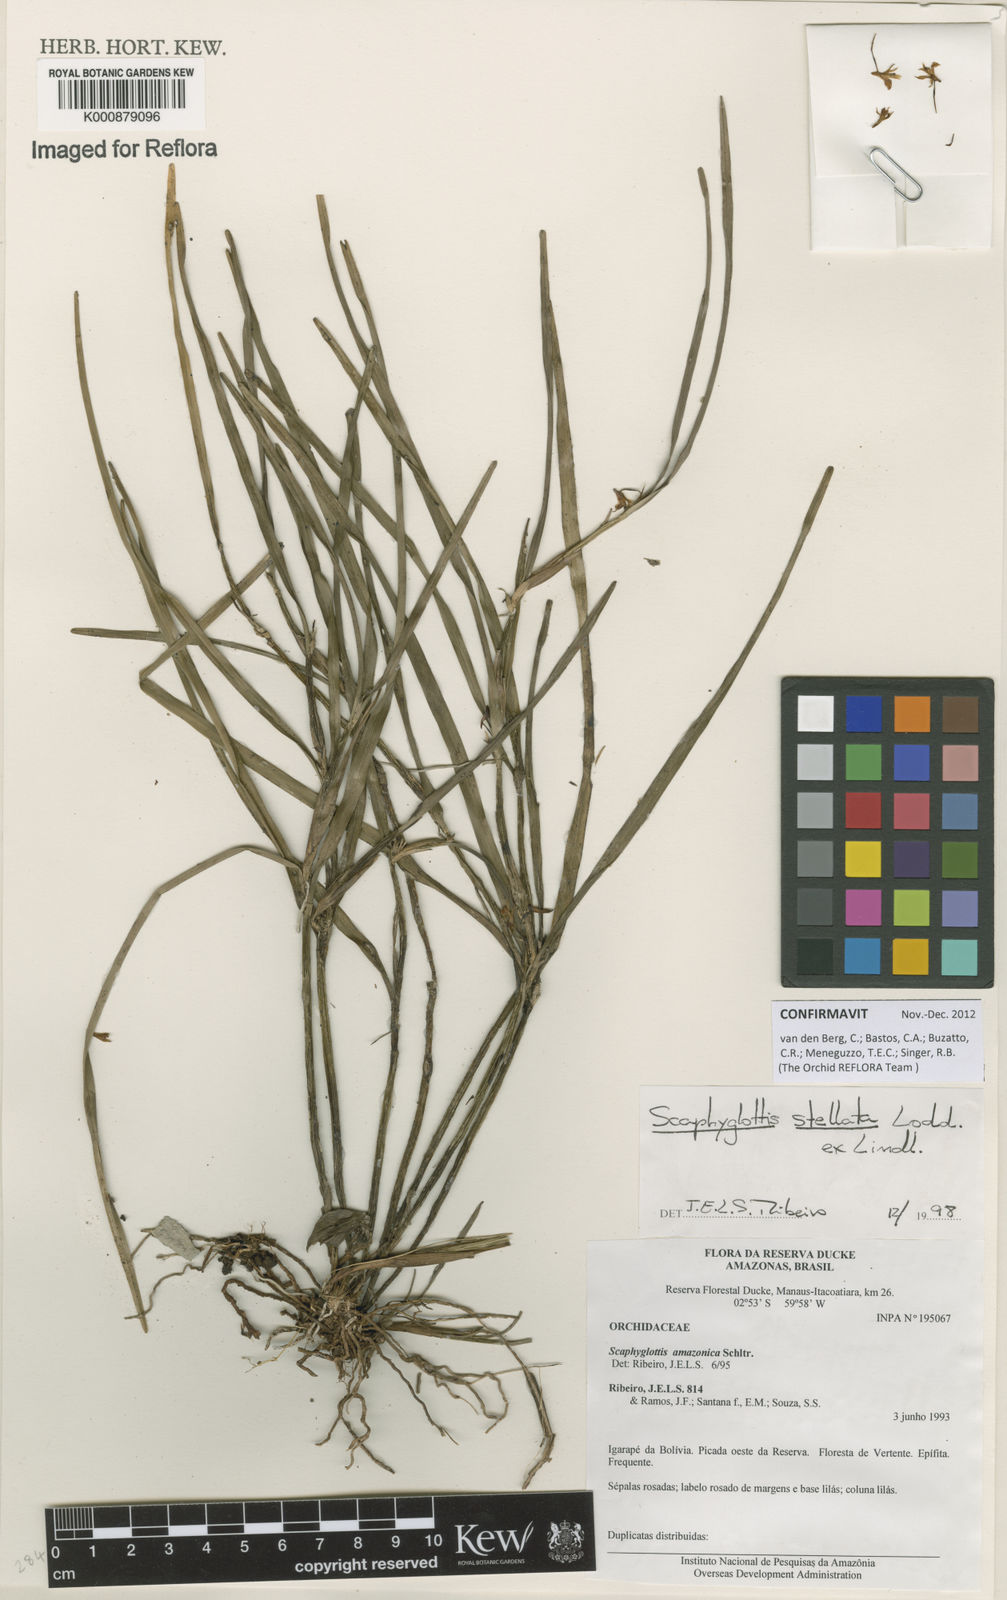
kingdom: Plantae
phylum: Tracheophyta
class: Liliopsida
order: Asparagales
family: Orchidaceae
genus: Scaphyglottis
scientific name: Scaphyglottis stellata
